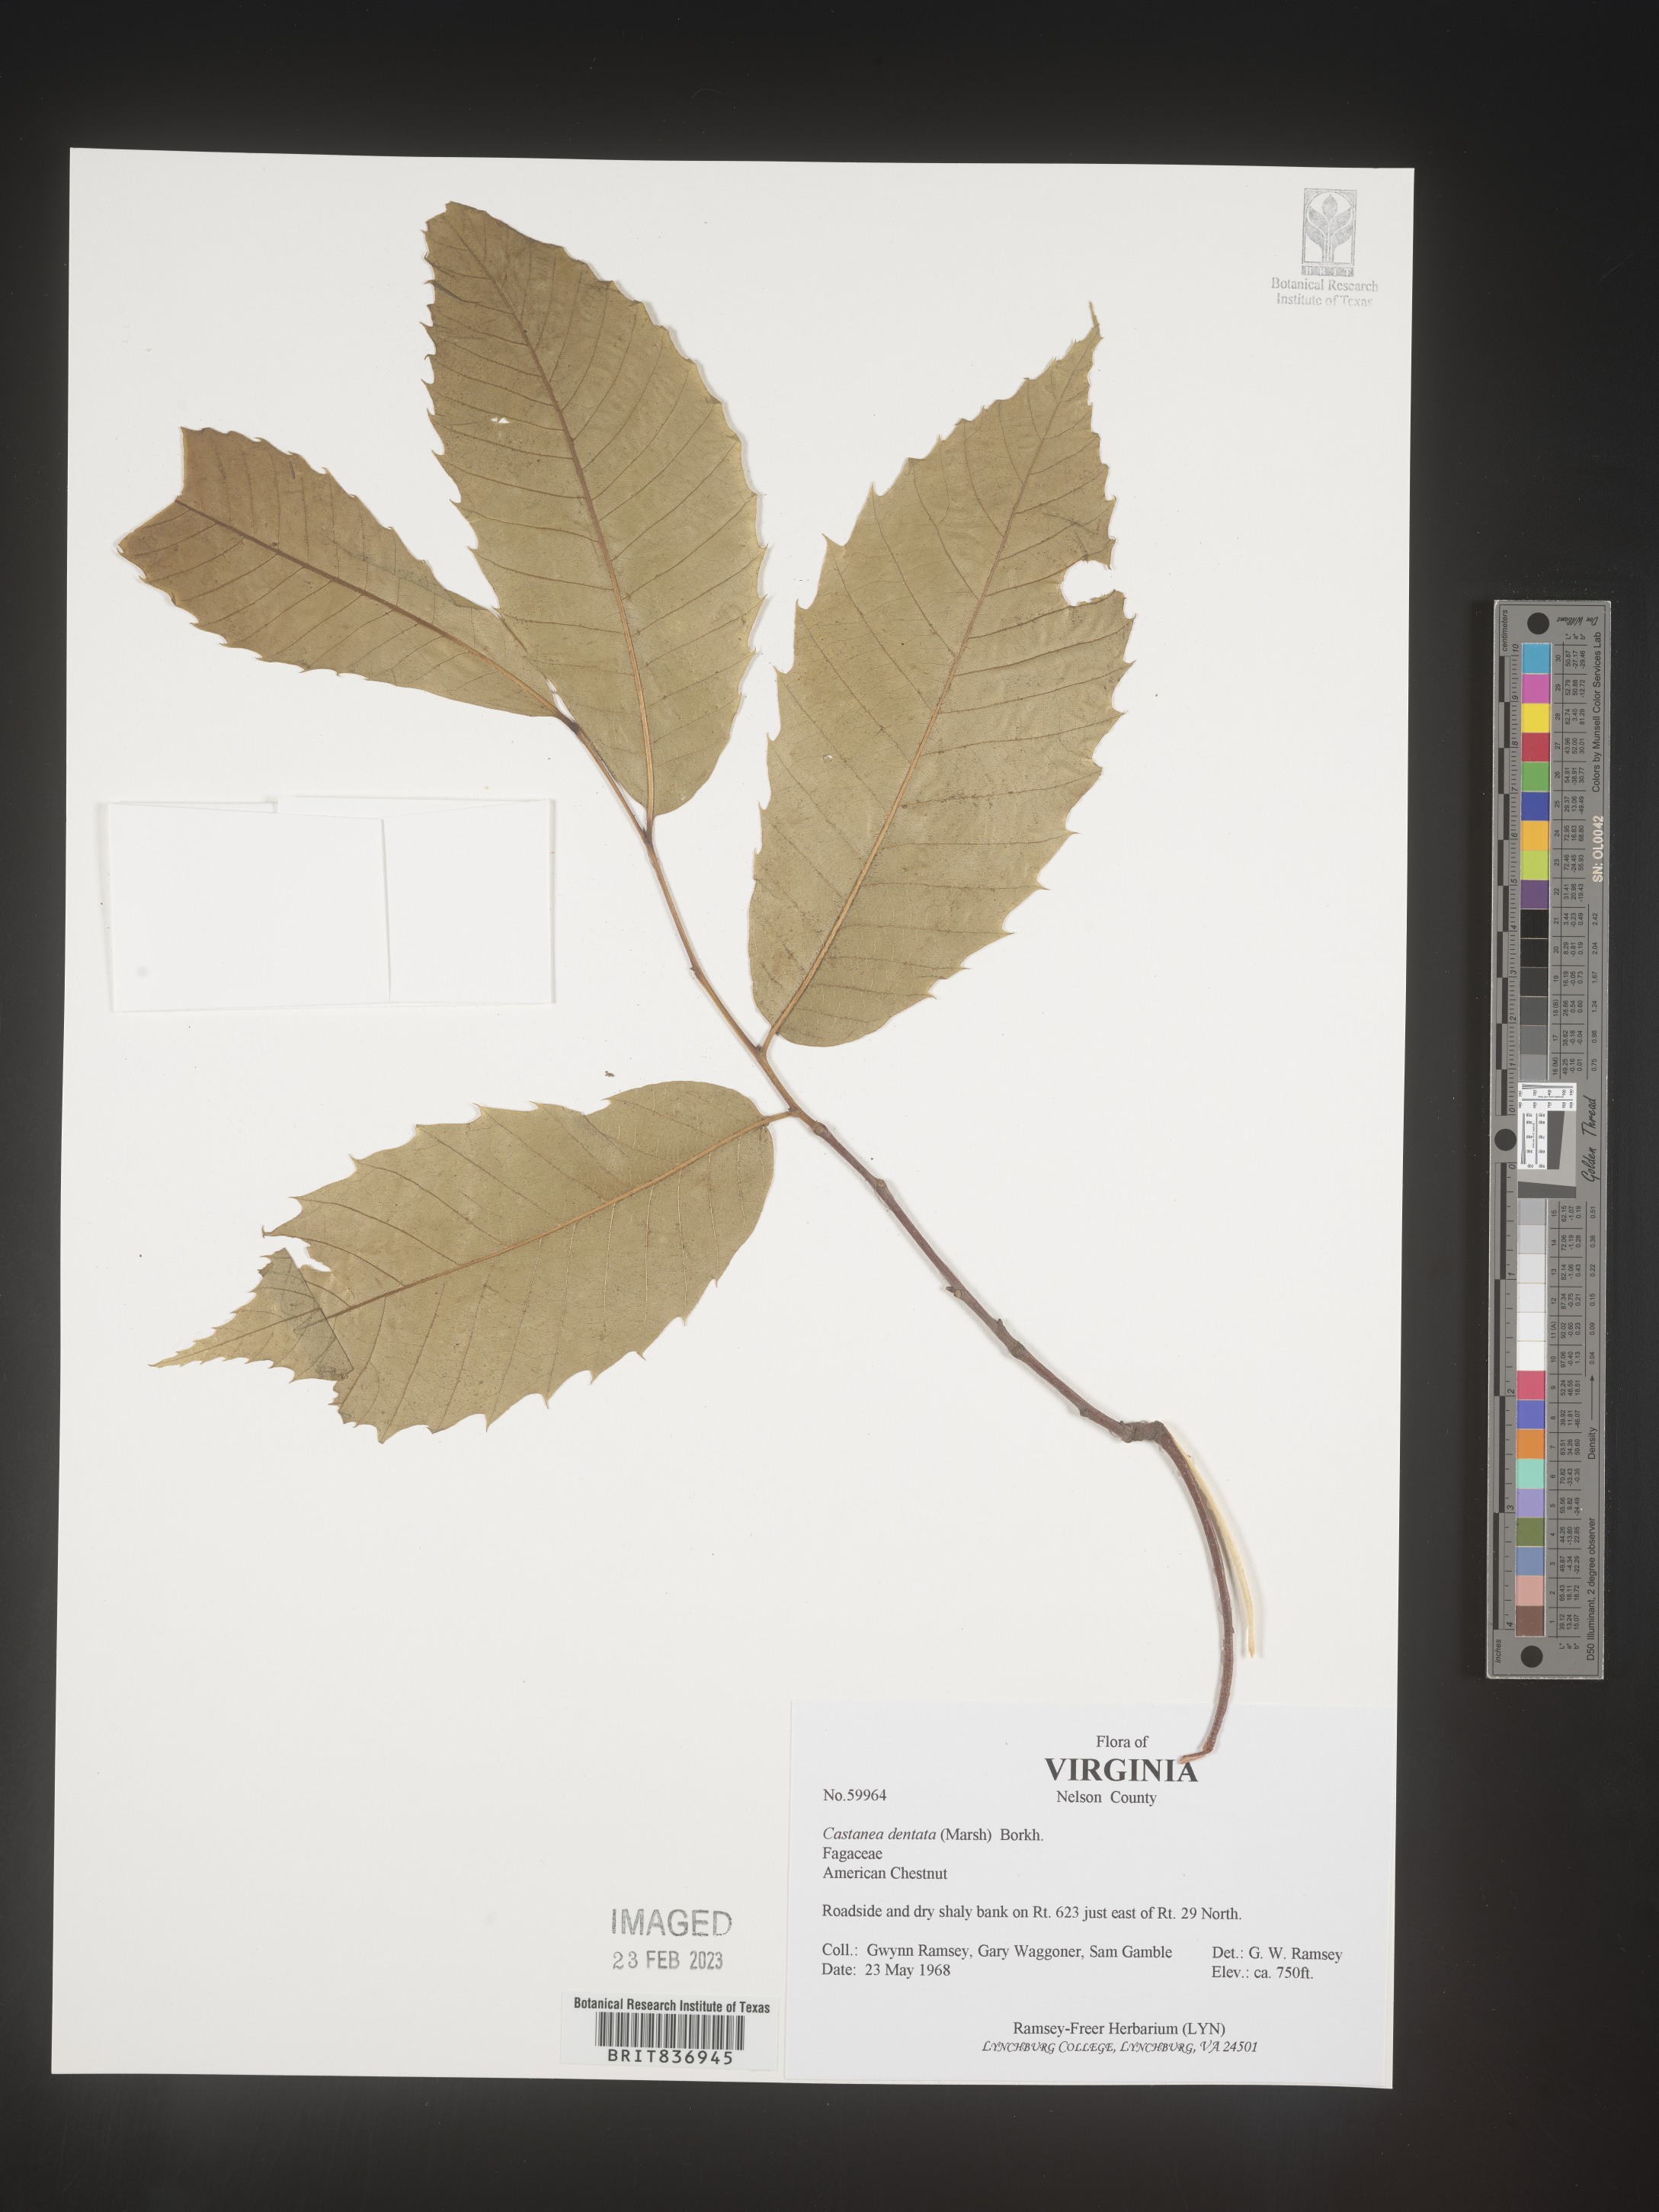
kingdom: Plantae
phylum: Tracheophyta
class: Magnoliopsida
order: Fagales
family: Fagaceae
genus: Castanea
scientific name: Castanea dentata
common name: American chestnut
